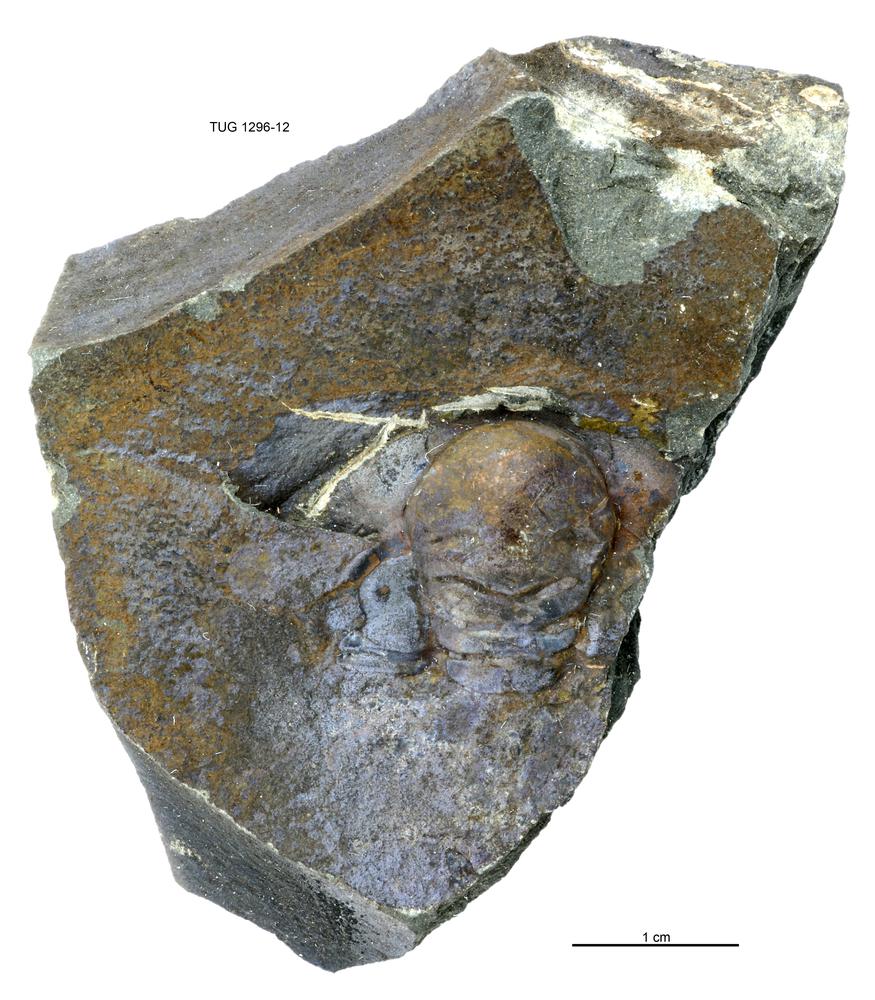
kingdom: Animalia
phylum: Arthropoda
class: Trilobita
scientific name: Trilobita
